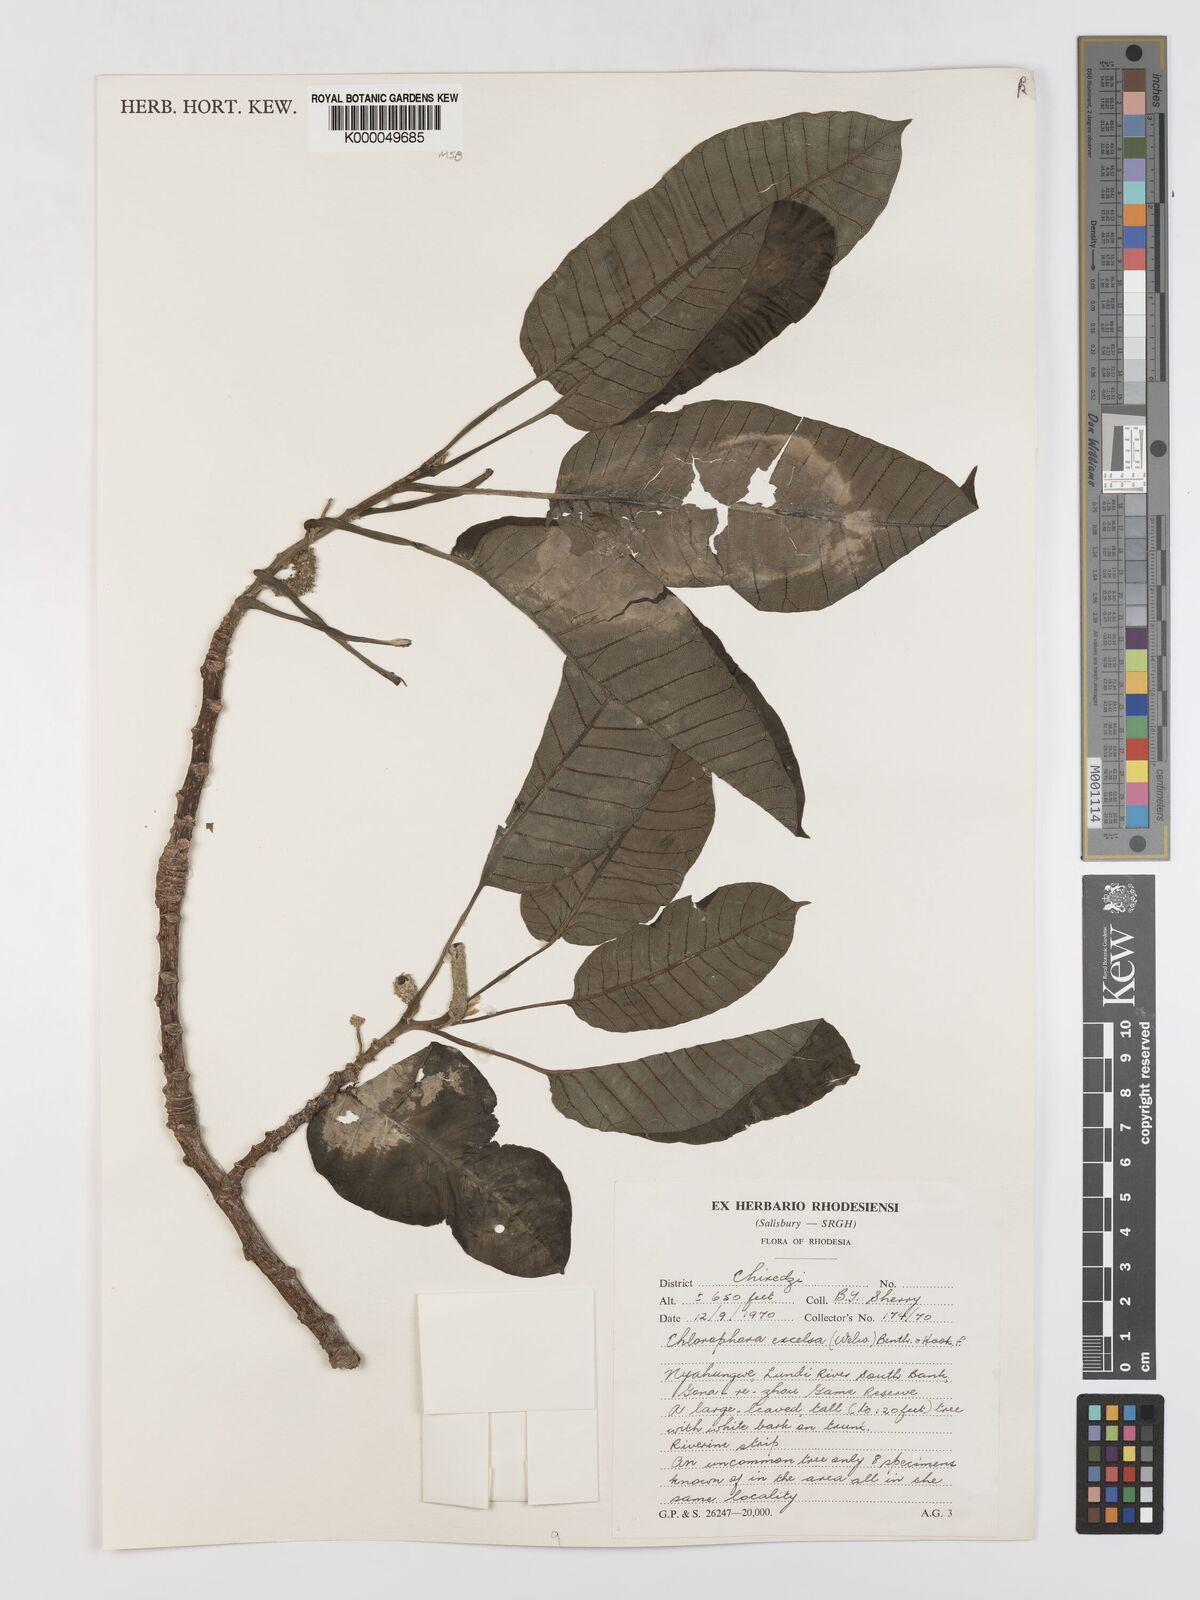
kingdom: Plantae
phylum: Tracheophyta
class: Magnoliopsida
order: Rosales
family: Moraceae
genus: Milicia
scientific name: Milicia excelsa
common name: African teak
